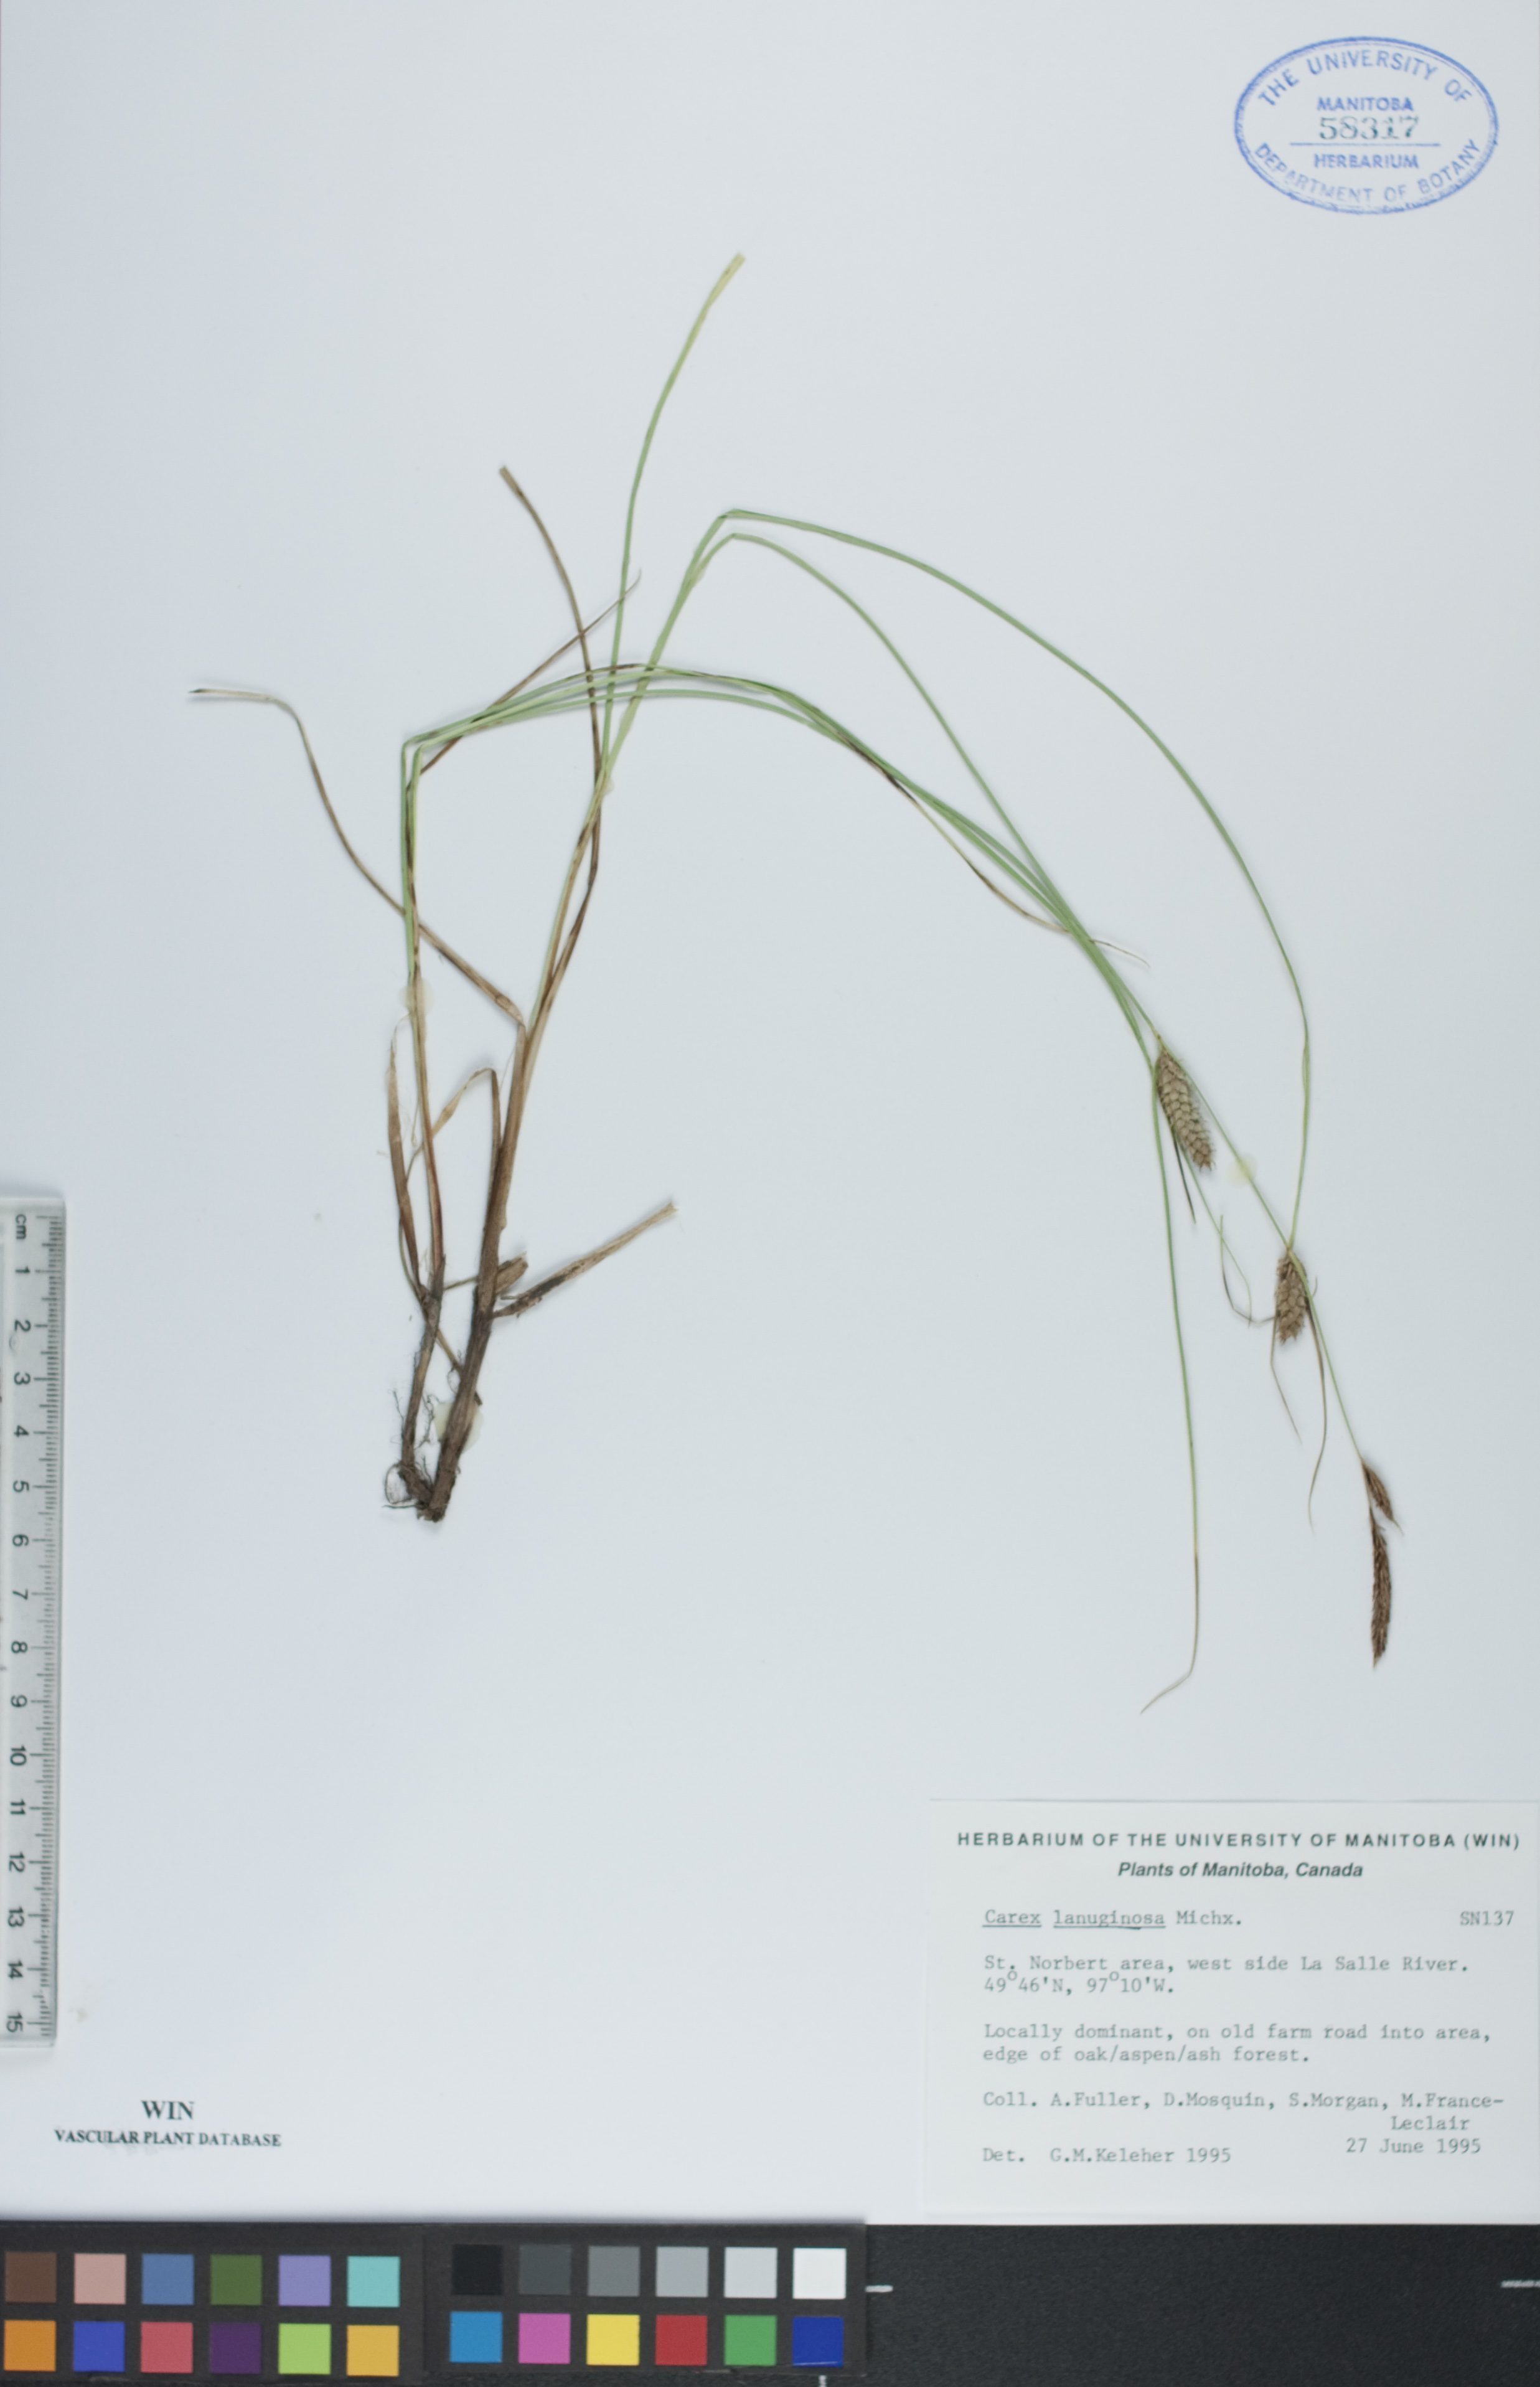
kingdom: Plantae
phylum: Tracheophyta
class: Liliopsida
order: Poales
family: Cyperaceae
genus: Carex
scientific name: Carex lasiocarpa
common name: Slender sedge
